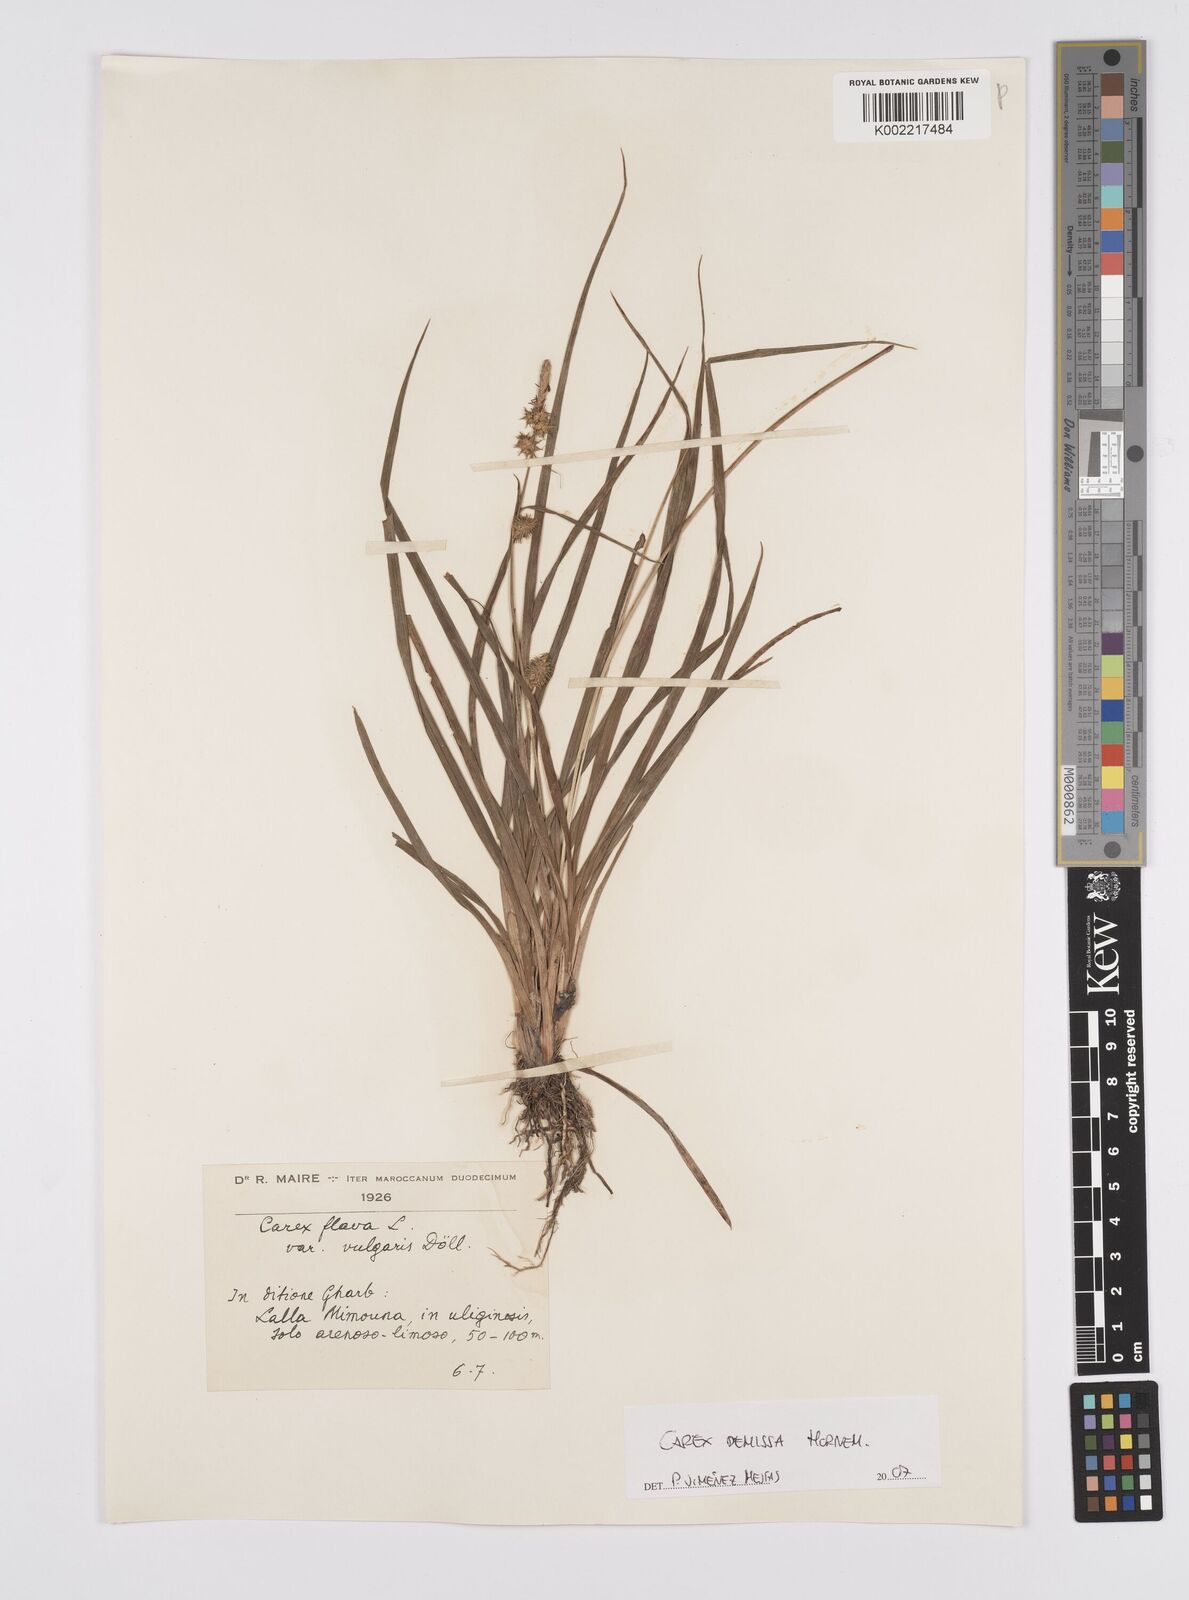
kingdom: Plantae
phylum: Tracheophyta
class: Liliopsida
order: Poales
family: Cyperaceae
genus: Carex
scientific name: Carex demissa
